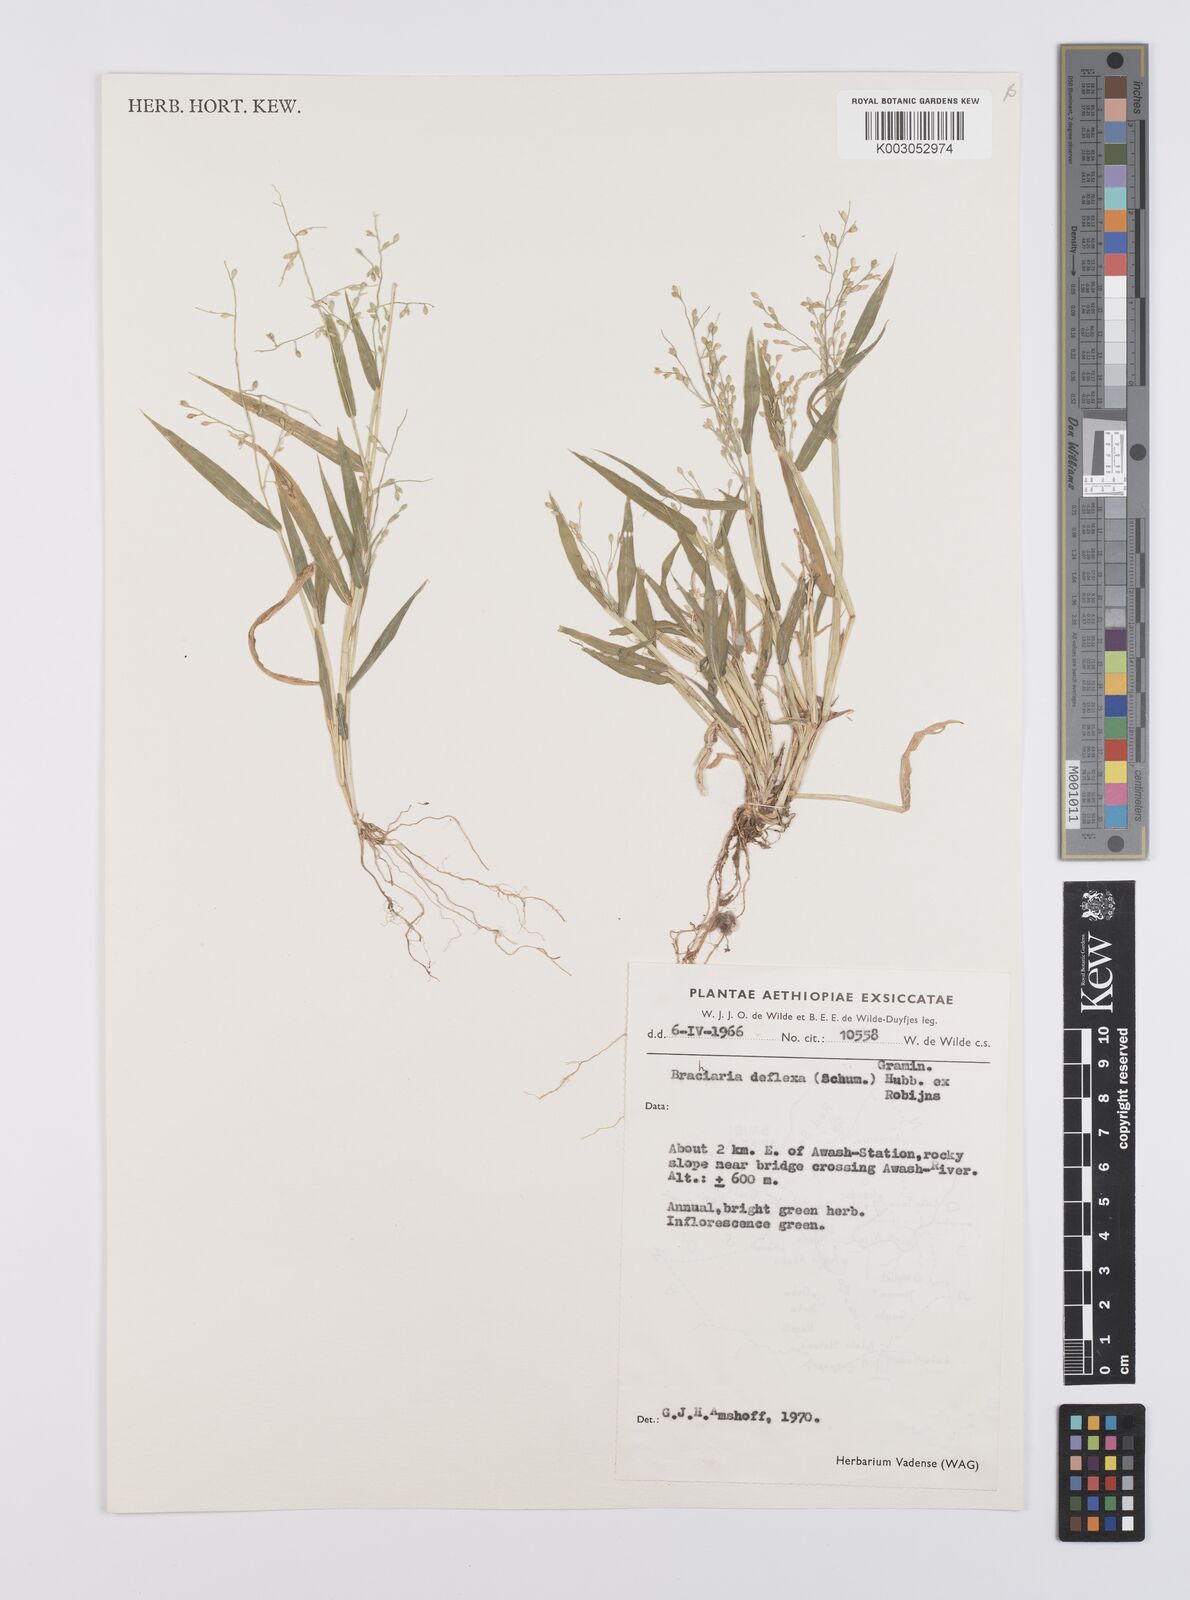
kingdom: Plantae
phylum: Tracheophyta
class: Liliopsida
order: Poales
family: Poaceae
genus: Urochloa
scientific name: Urochloa deflexa
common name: Guinea millet
